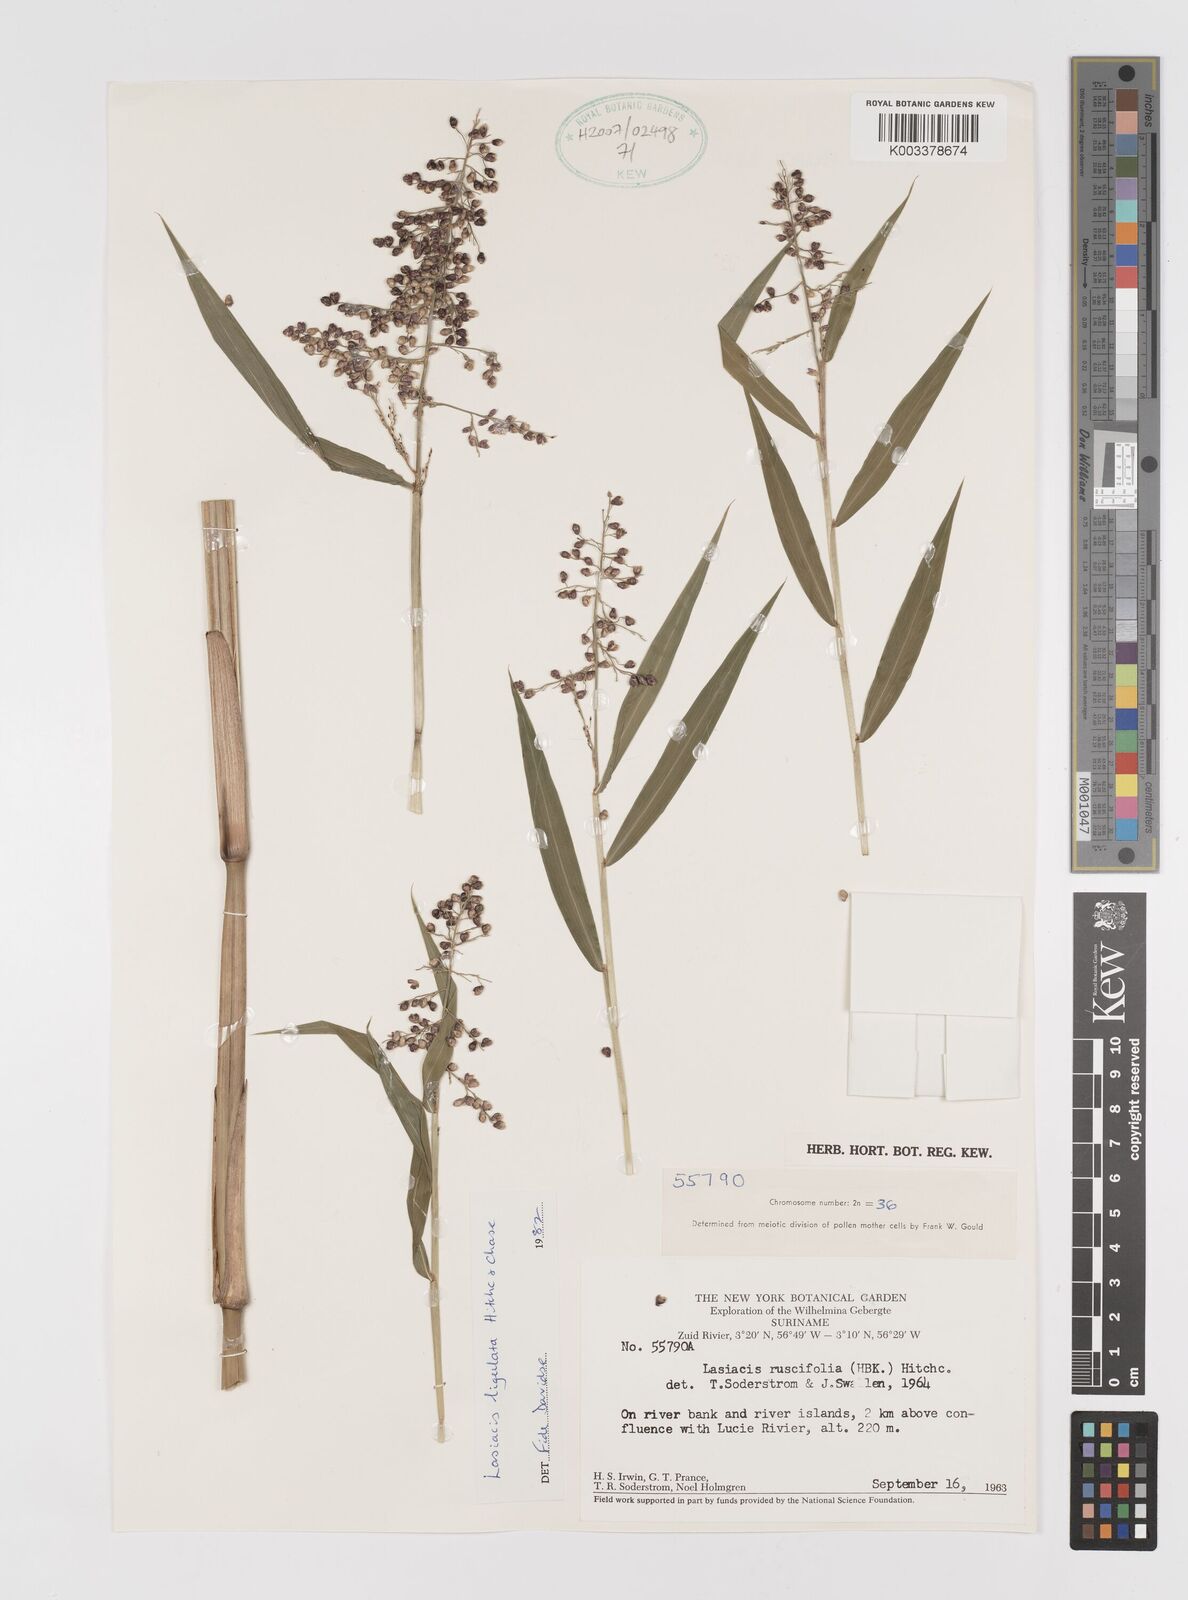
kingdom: Plantae
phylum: Tracheophyta
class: Liliopsida
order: Poales
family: Poaceae
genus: Lasiacis
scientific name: Lasiacis ligulata
